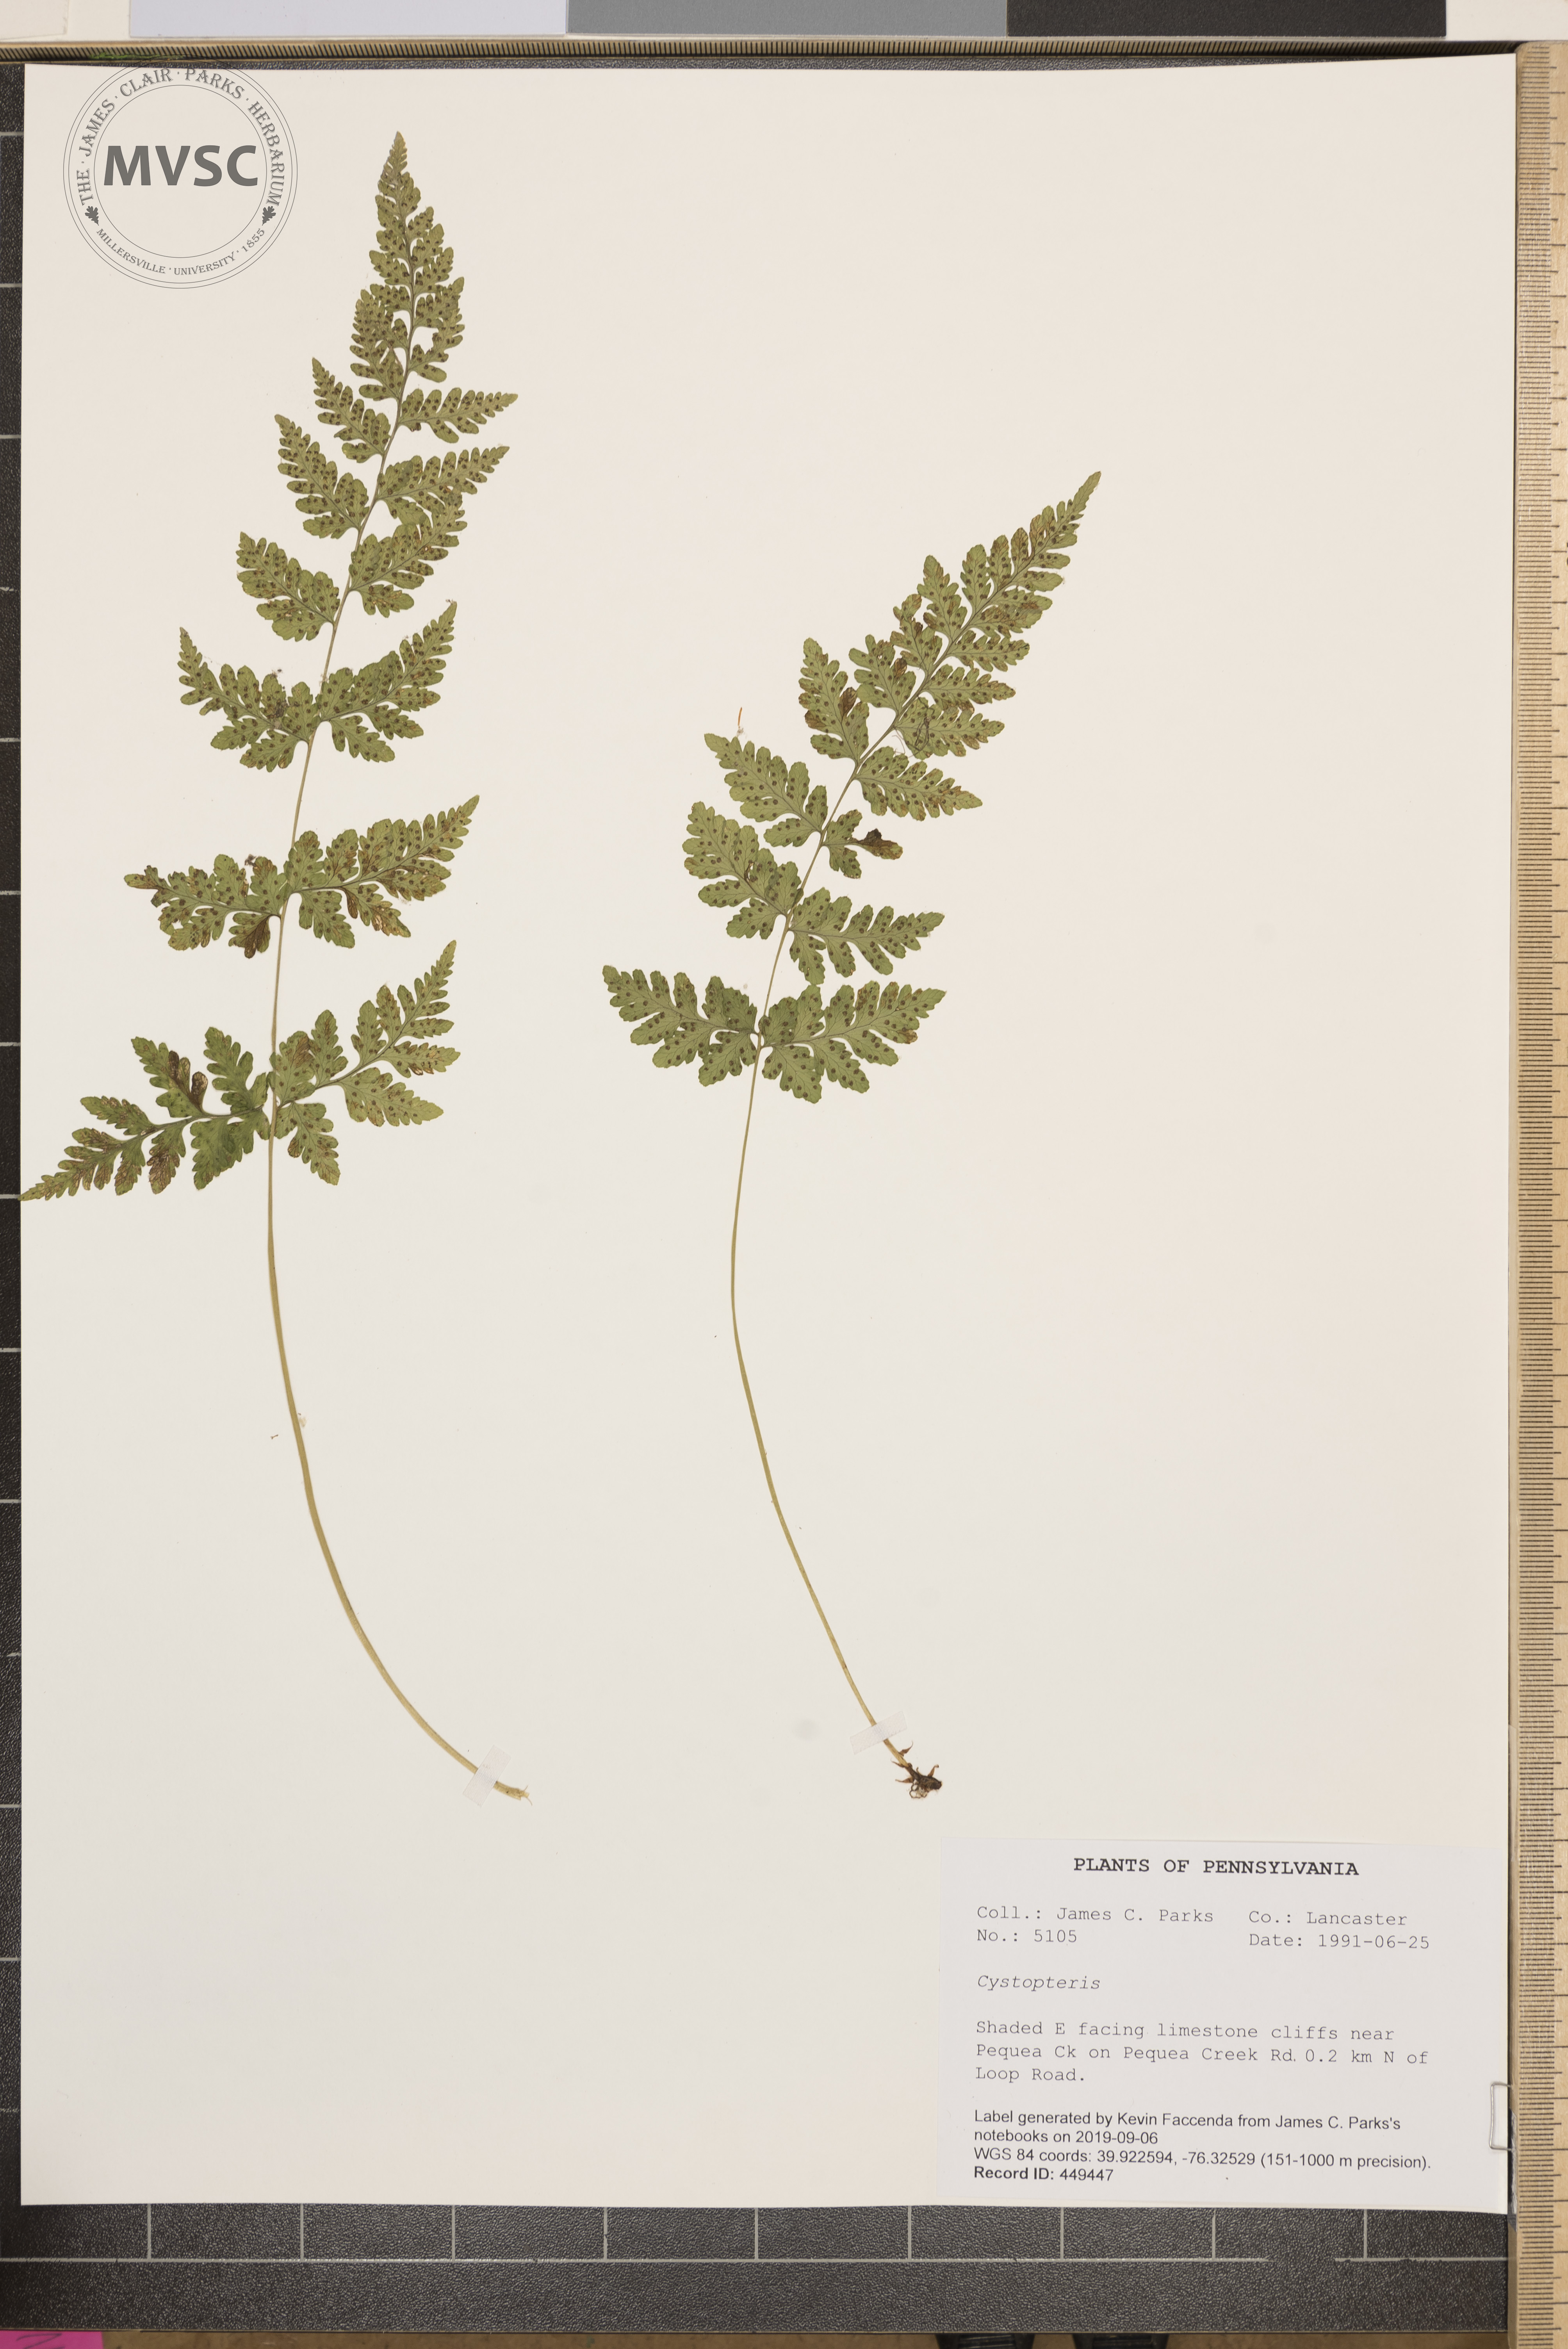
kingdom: Plantae
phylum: Tracheophyta
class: Polypodiopsida
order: Polypodiales
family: Cystopteridaceae
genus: Cystopteris
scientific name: Cystopteris
